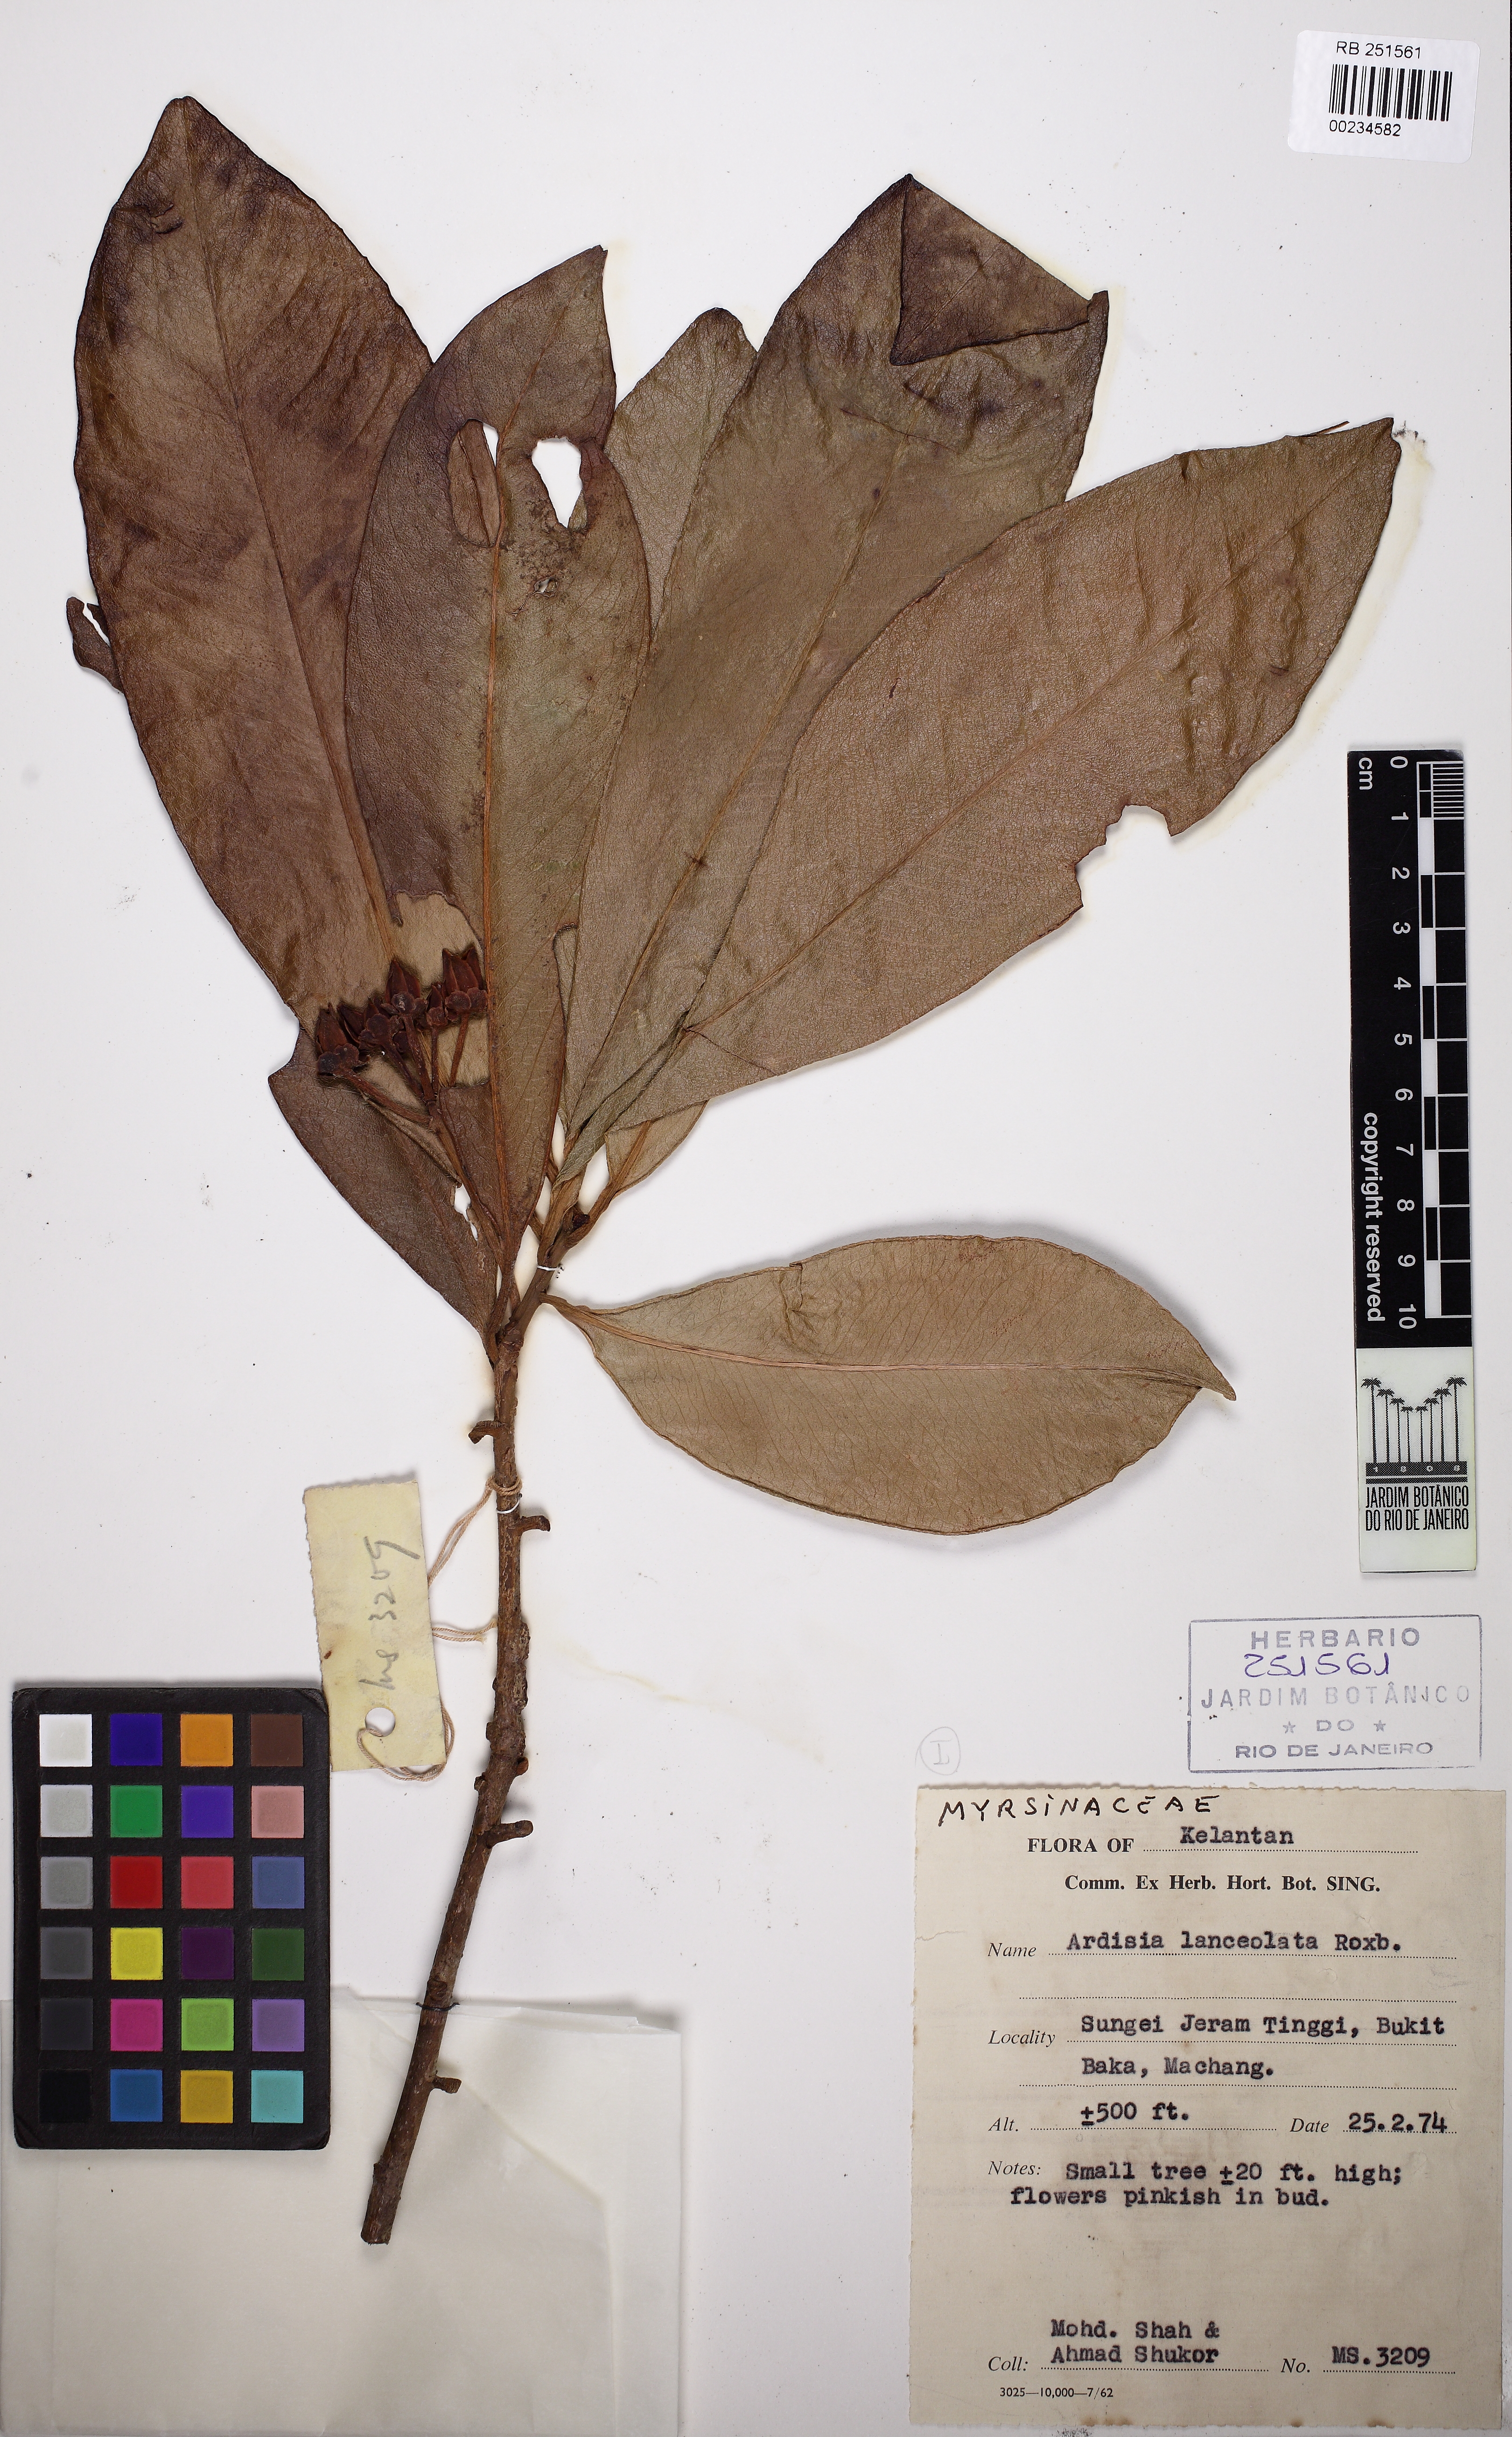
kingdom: Plantae
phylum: Tracheophyta
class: Magnoliopsida
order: Ericales
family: Primulaceae
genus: Ardisia
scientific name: Ardisia purpurea
